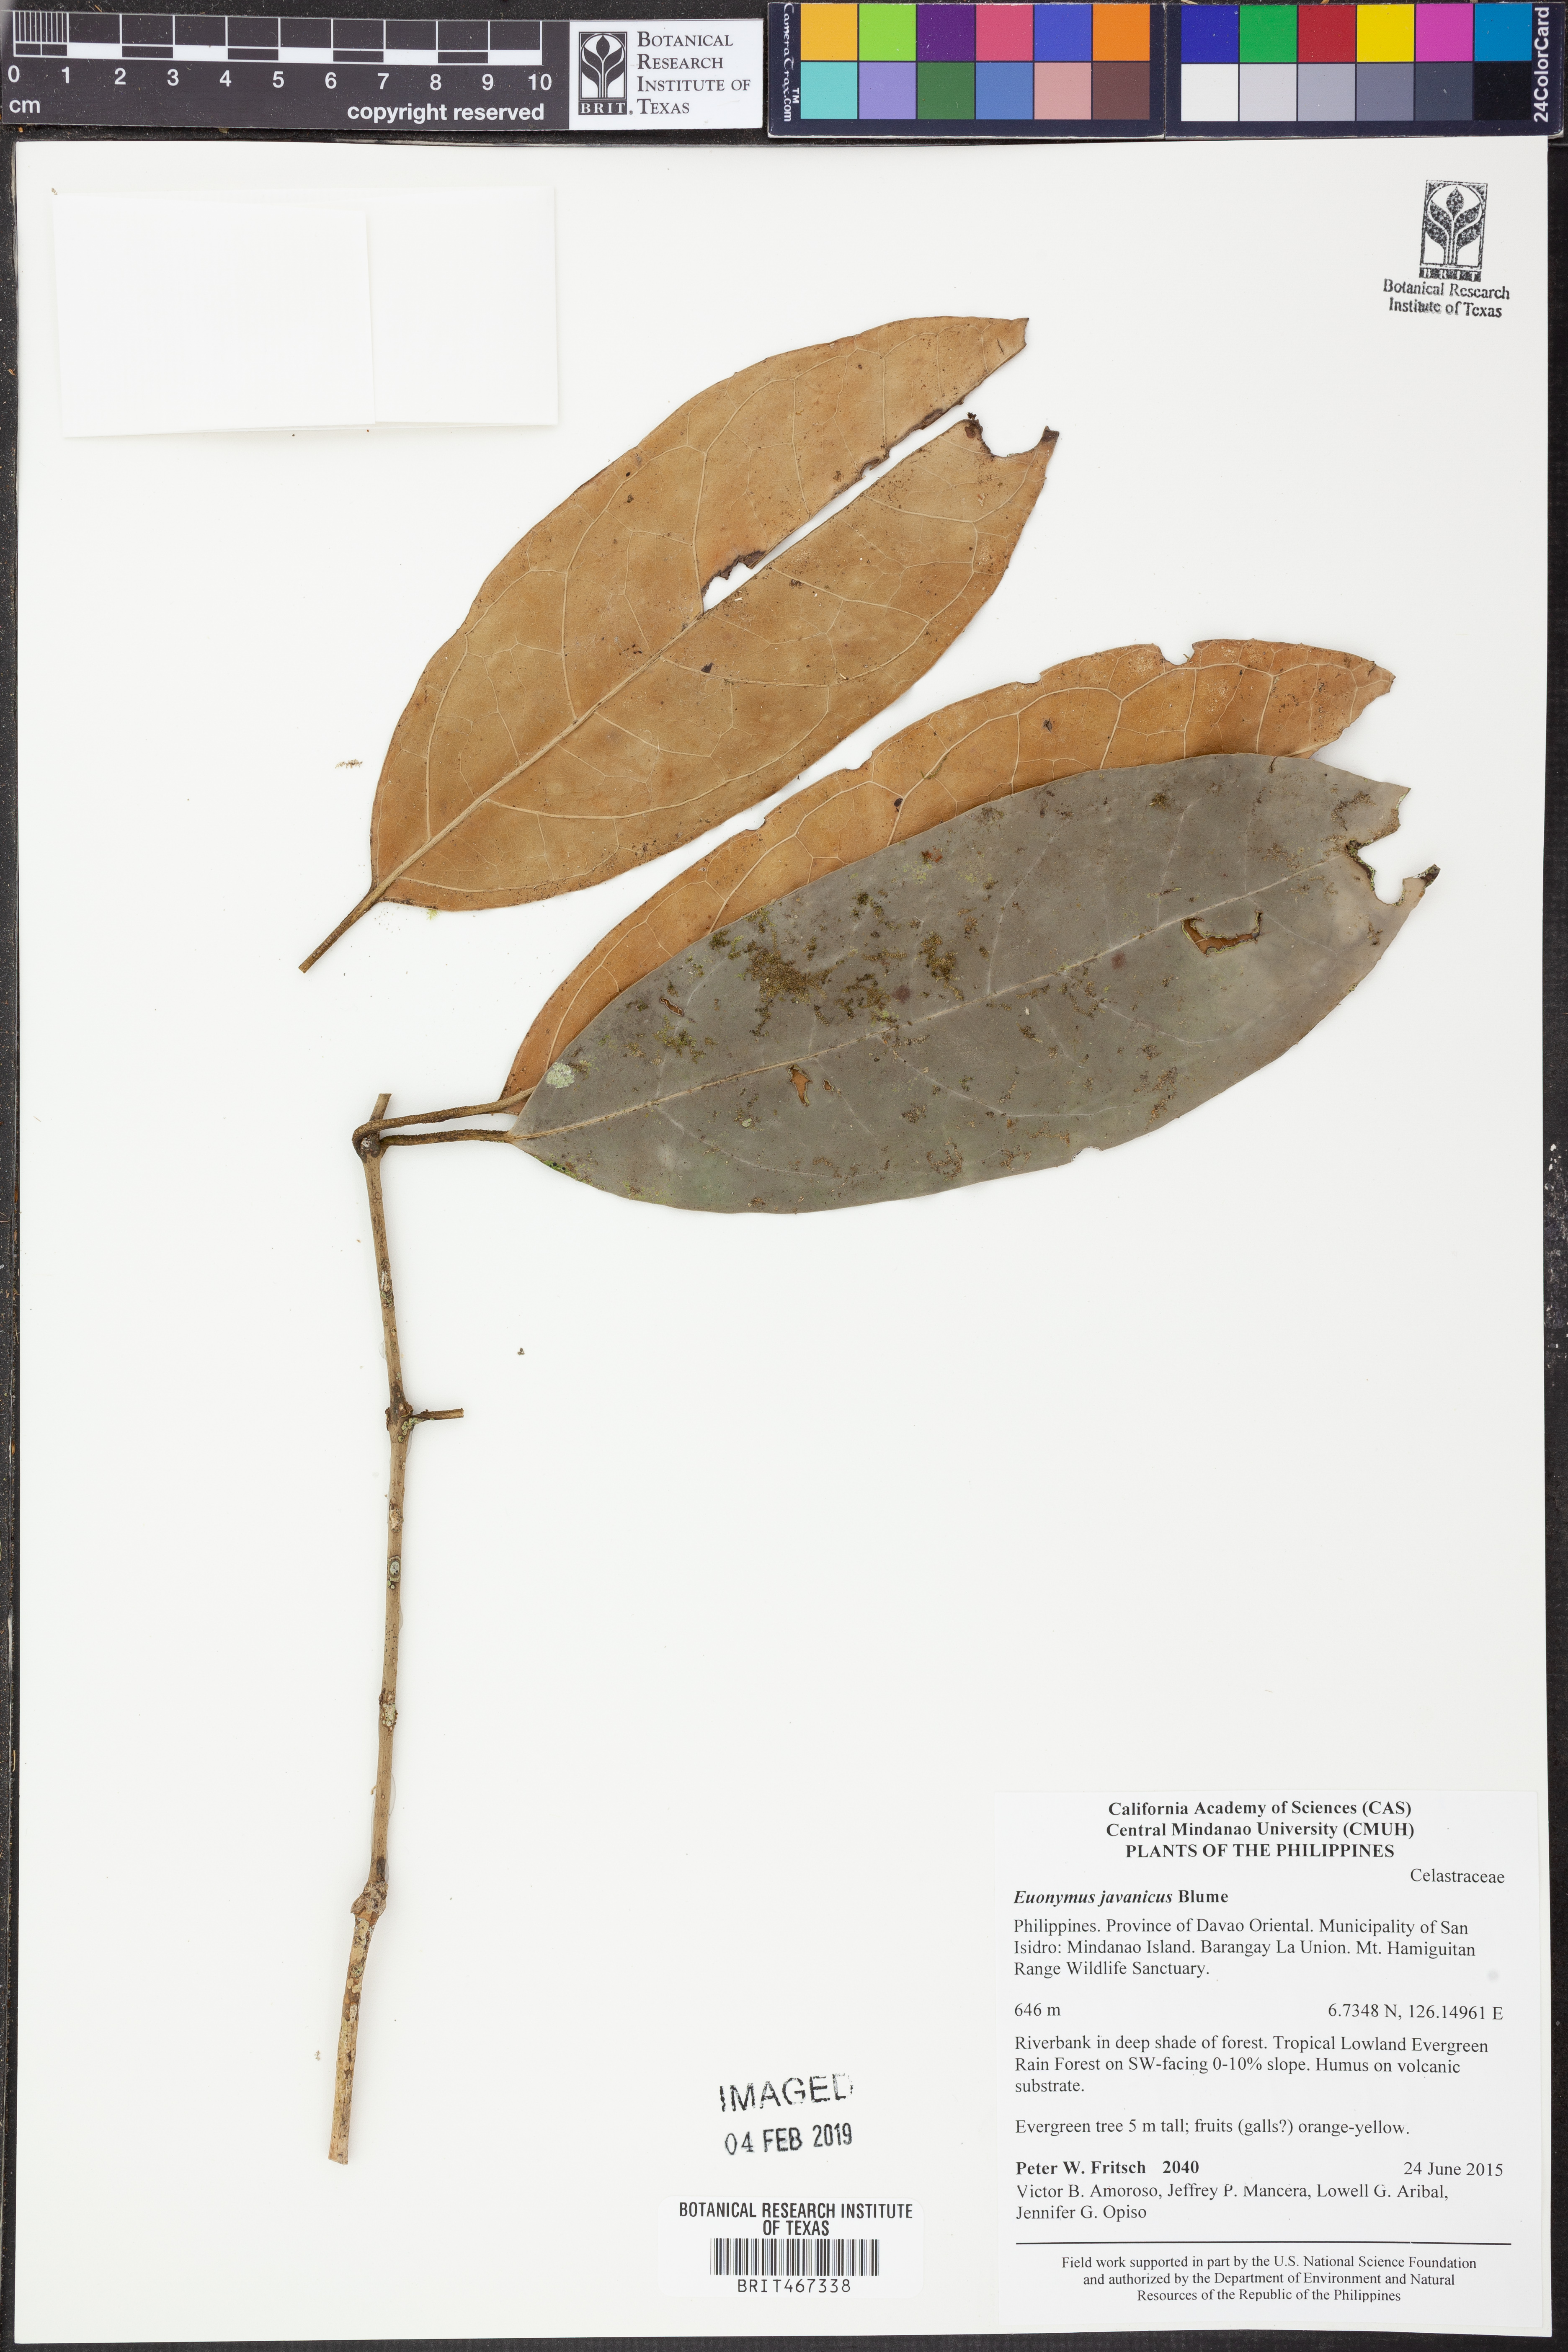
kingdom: Plantae
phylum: Tracheophyta
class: Magnoliopsida
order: Celastrales
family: Celastraceae
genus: Euonymus
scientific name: Euonymus indicus
